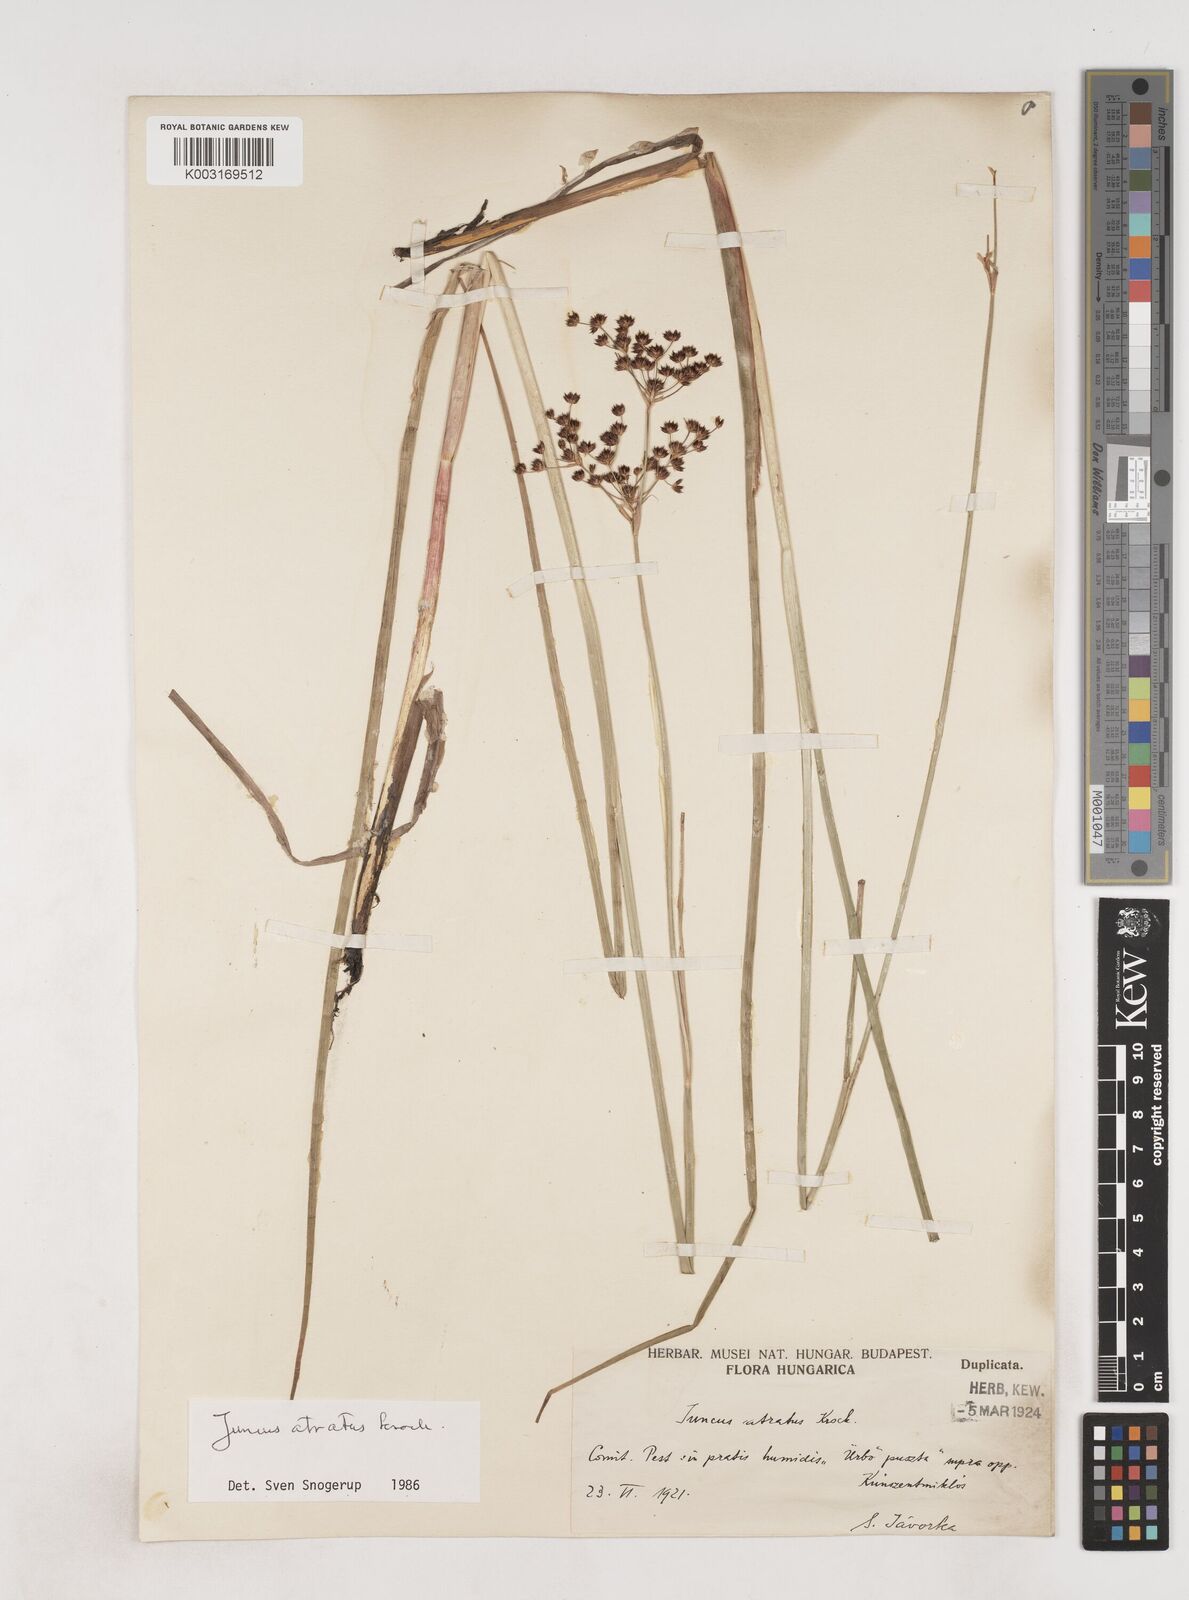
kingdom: Plantae
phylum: Tracheophyta
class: Liliopsida
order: Poales
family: Juncaceae
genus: Juncus
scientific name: Juncus atratus
